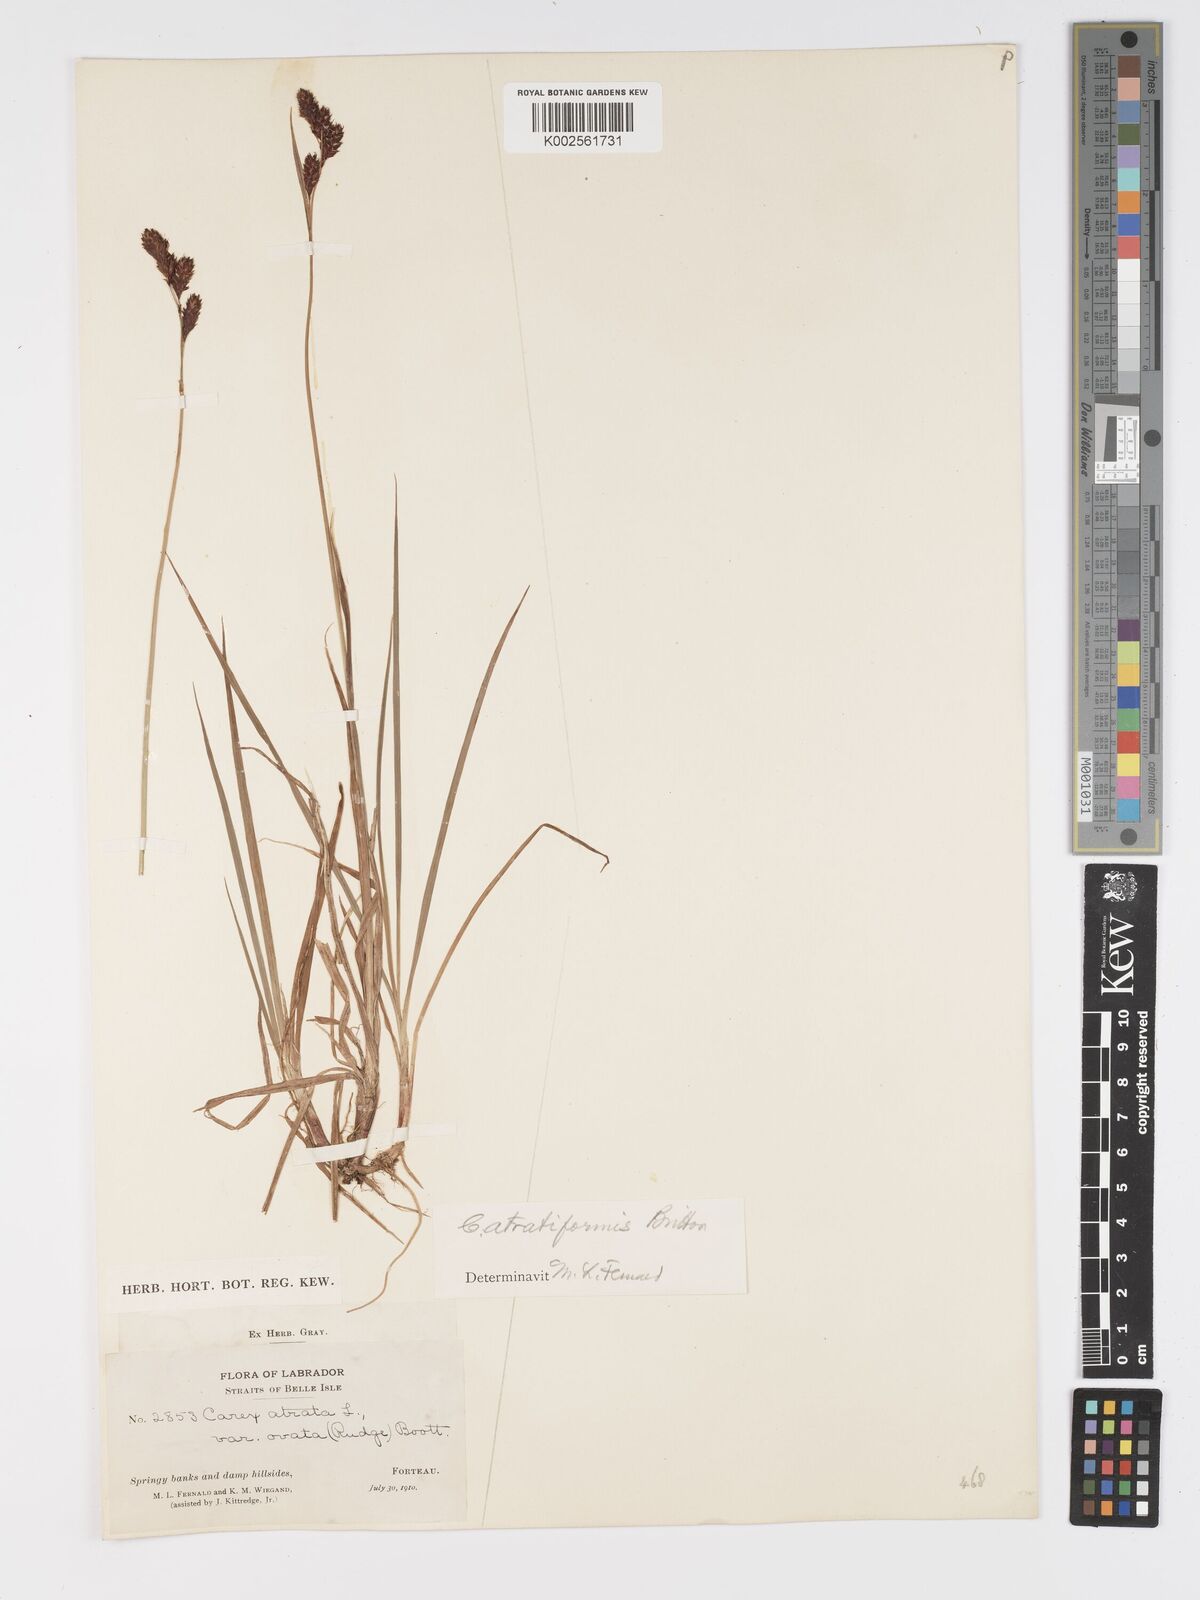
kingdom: Plantae
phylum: Tracheophyta
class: Liliopsida
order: Poales
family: Cyperaceae
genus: Carex
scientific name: Carex atratiformis
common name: Black sedge
